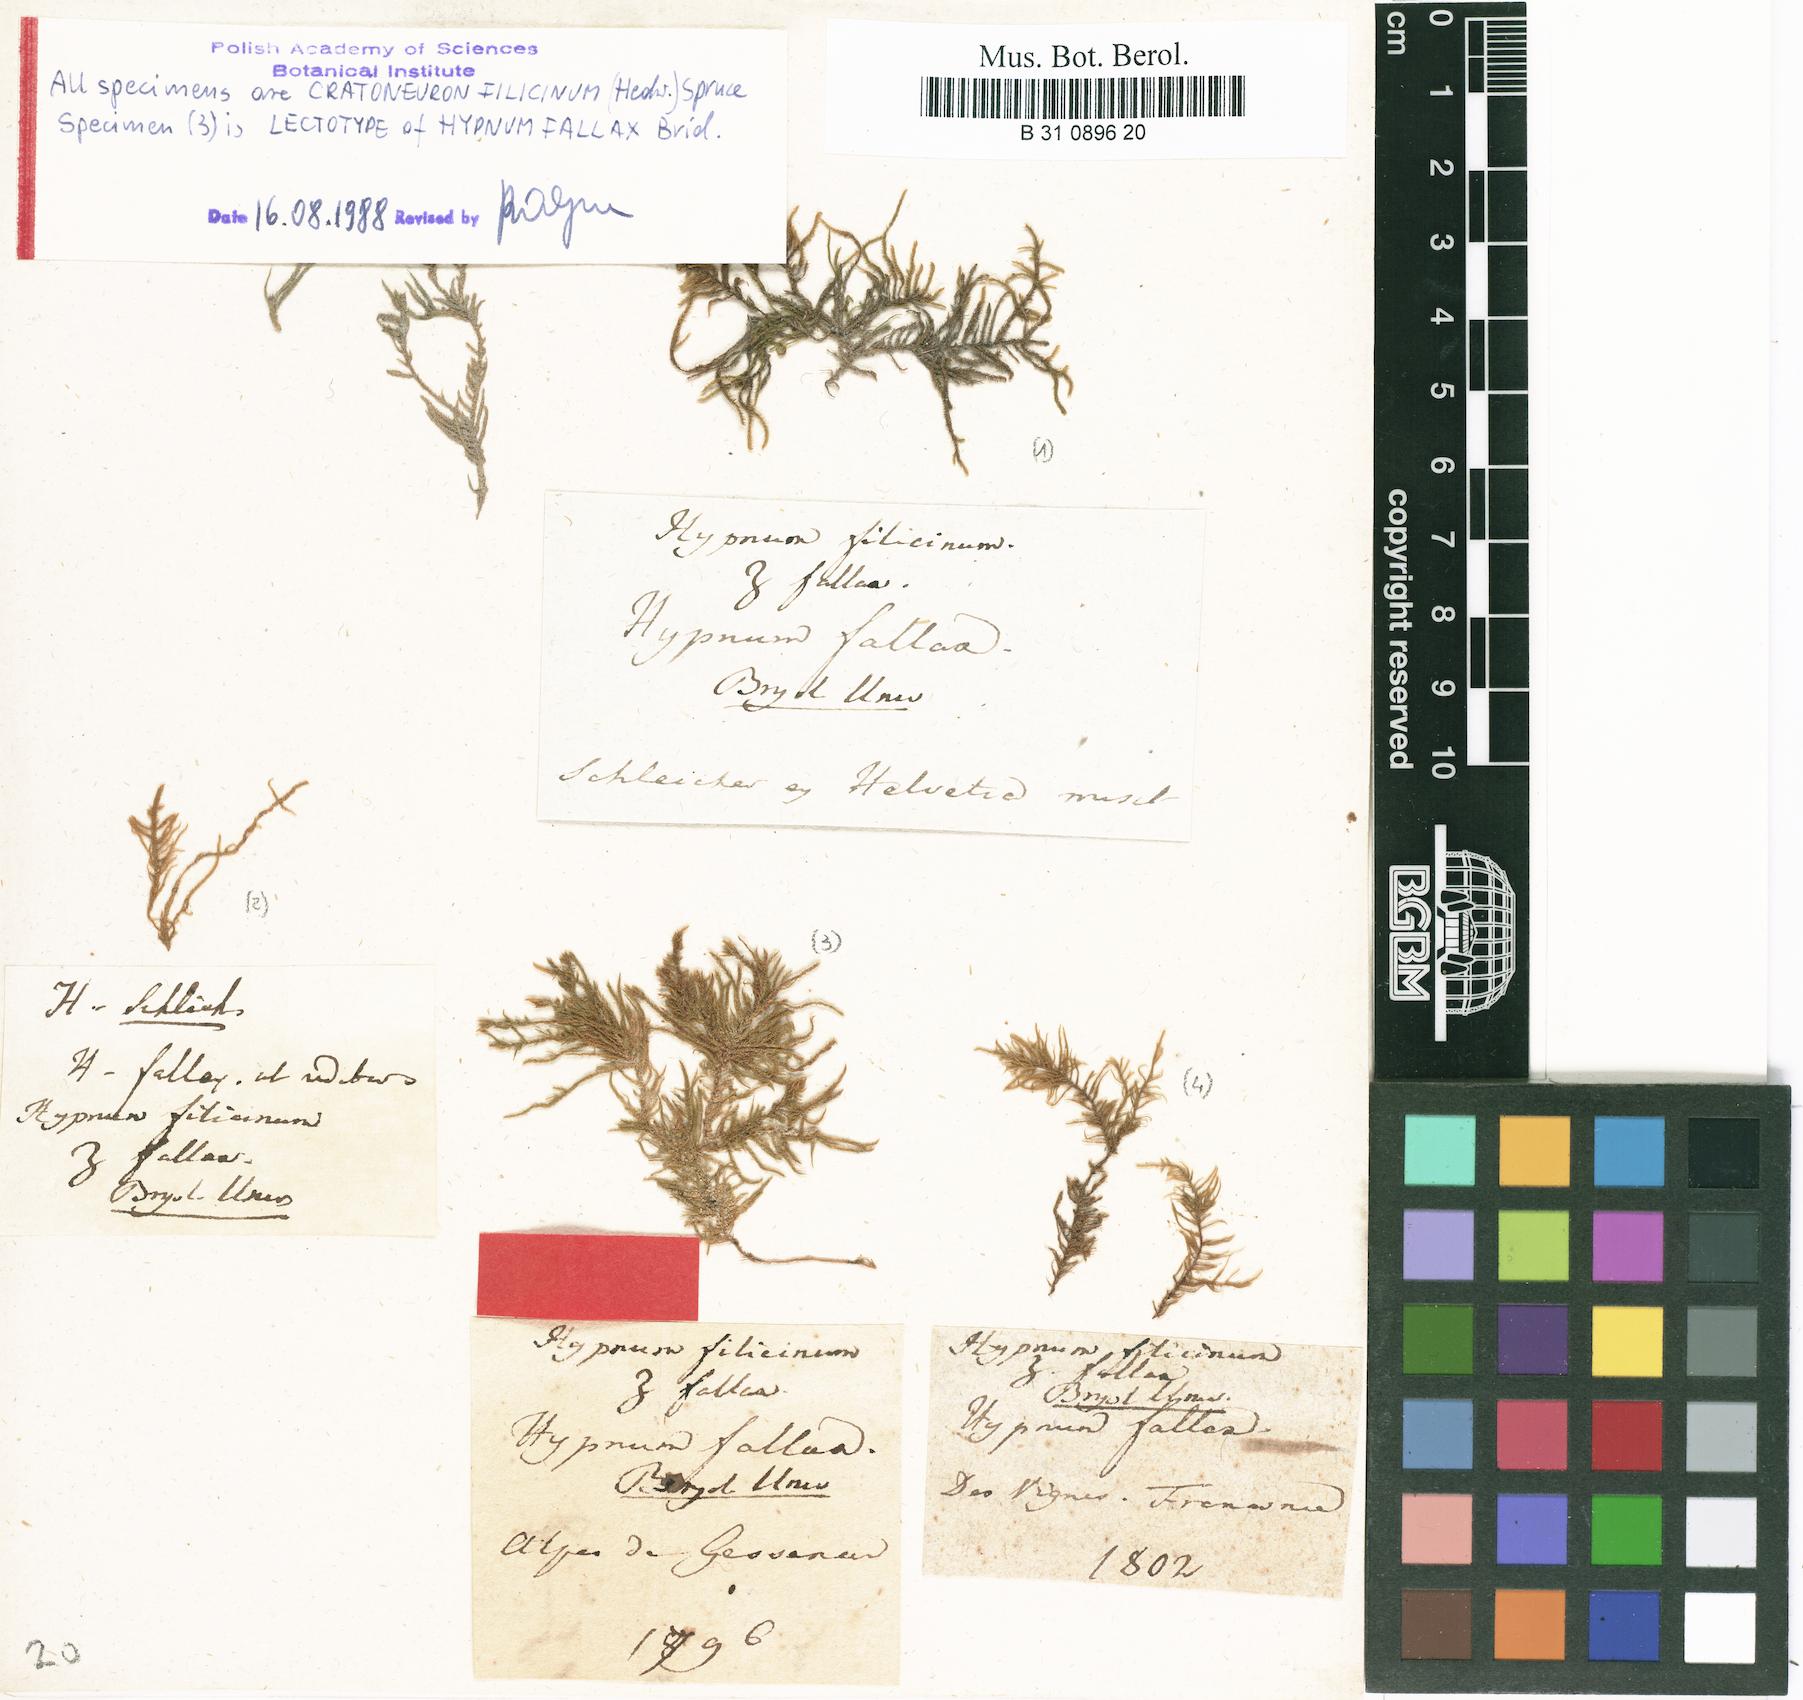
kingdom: Plantae
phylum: Bryophyta
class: Bryopsida
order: Hypnales
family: Amblystegiaceae
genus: Cratoneuron
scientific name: Cratoneuron filicinum
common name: Fern-leaved hook moss
